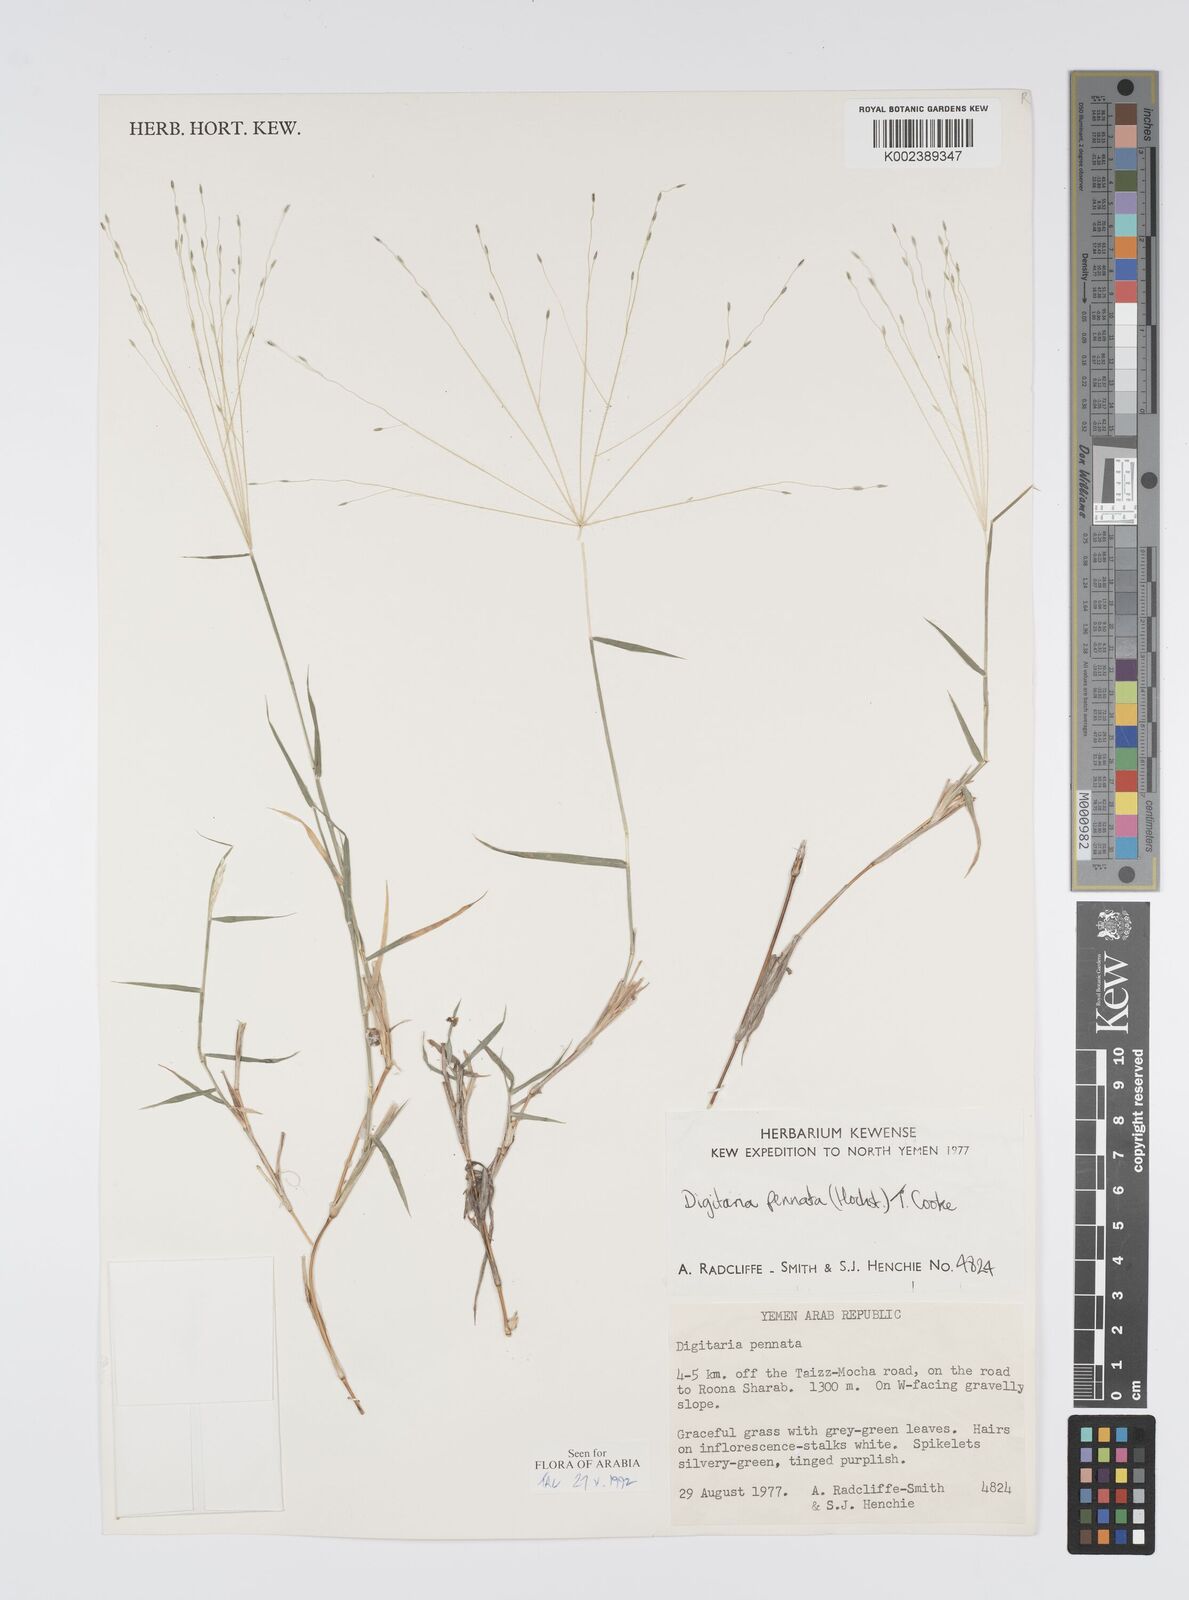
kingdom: Plantae
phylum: Tracheophyta
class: Liliopsida
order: Poales
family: Poaceae
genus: Digitaria
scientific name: Digitaria pennata
